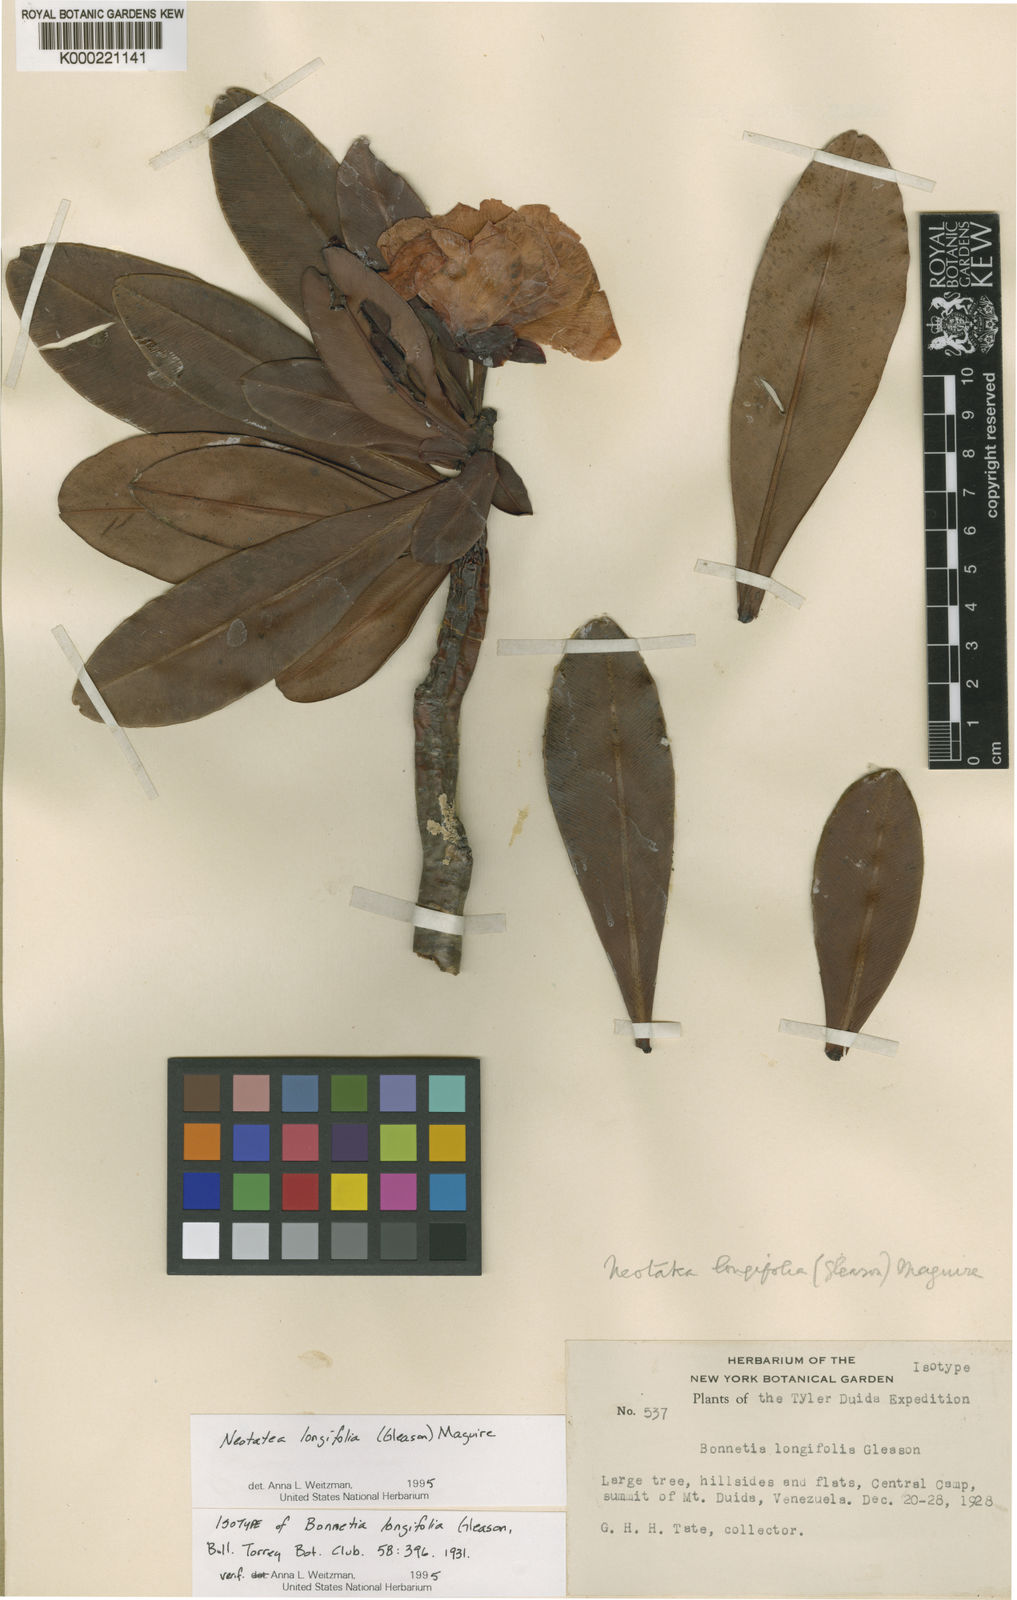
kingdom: Plantae
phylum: Tracheophyta
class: Magnoliopsida
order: Malpighiales
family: Calophyllaceae
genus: Neotatea
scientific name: Neotatea longifolia
